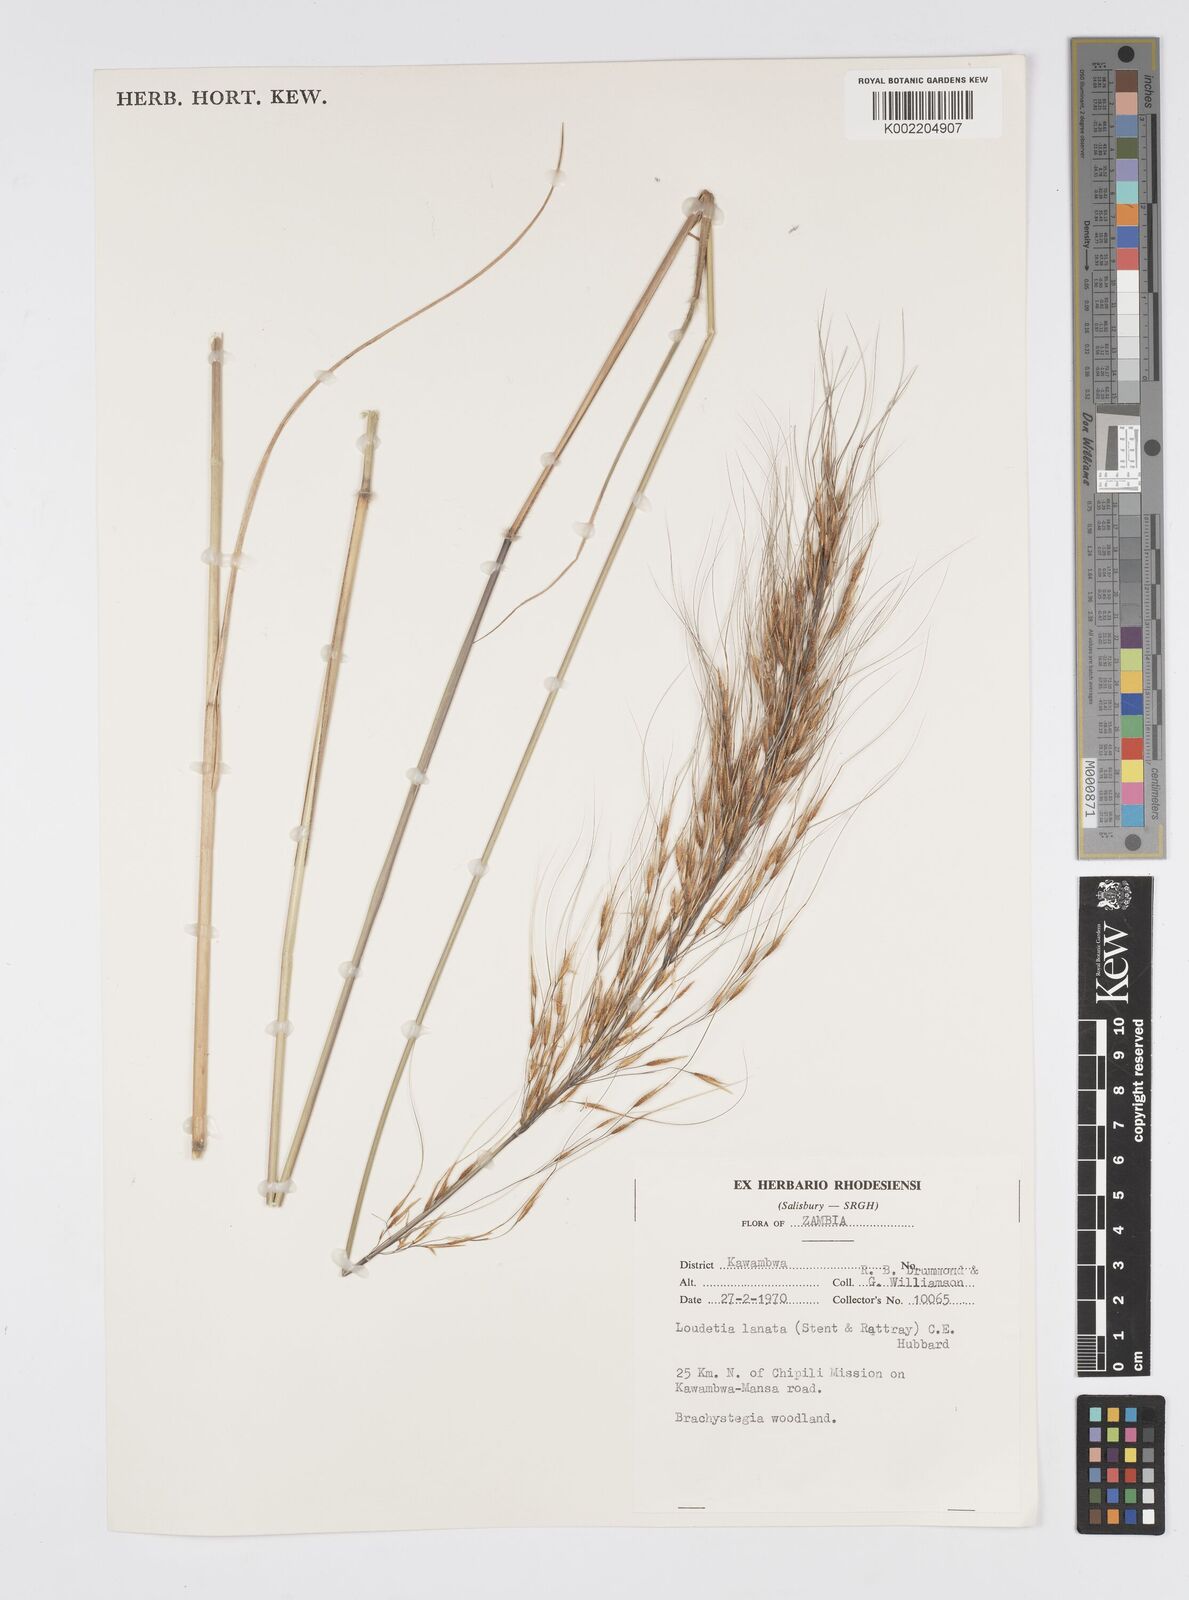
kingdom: Plantae
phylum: Tracheophyta
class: Liliopsida
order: Poales
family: Poaceae
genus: Loudetia
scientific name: Loudetia lanata
